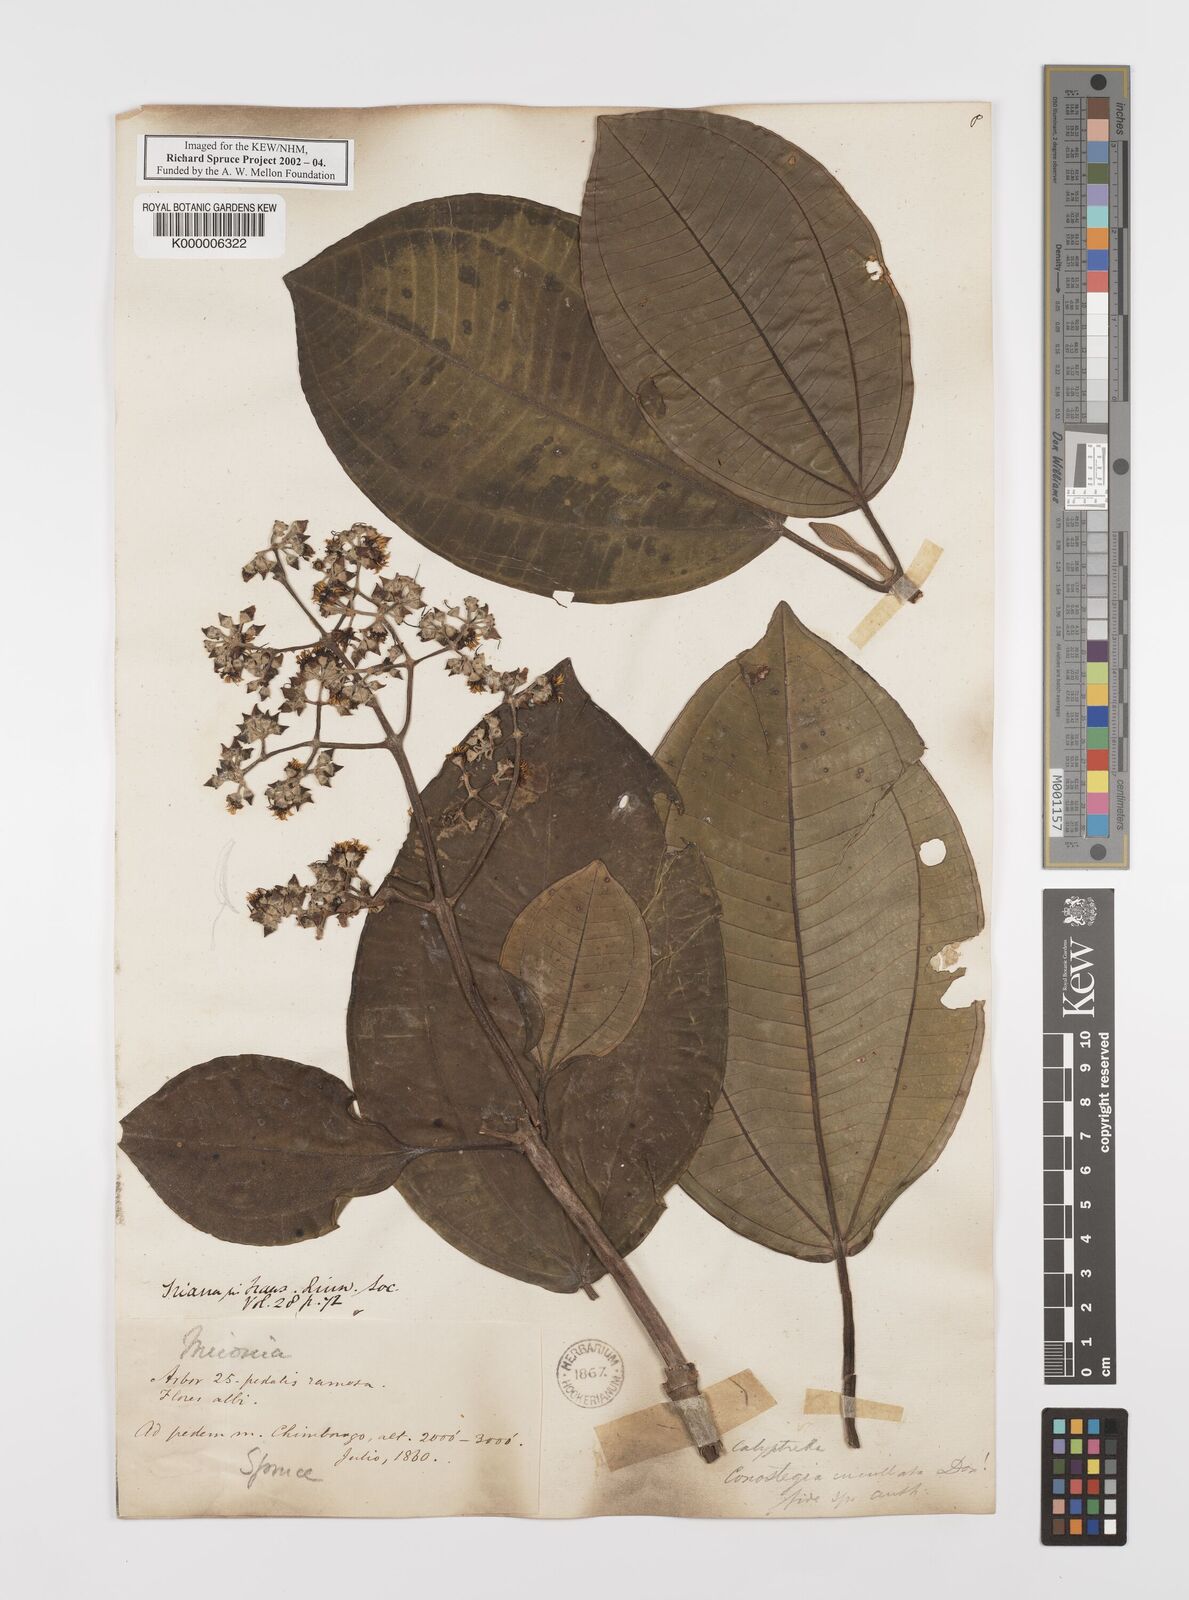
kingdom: Plantae
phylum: Tracheophyta
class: Magnoliopsida
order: Myrtales
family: Melastomataceae
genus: Graffenrieda
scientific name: Graffenrieda cucullata
